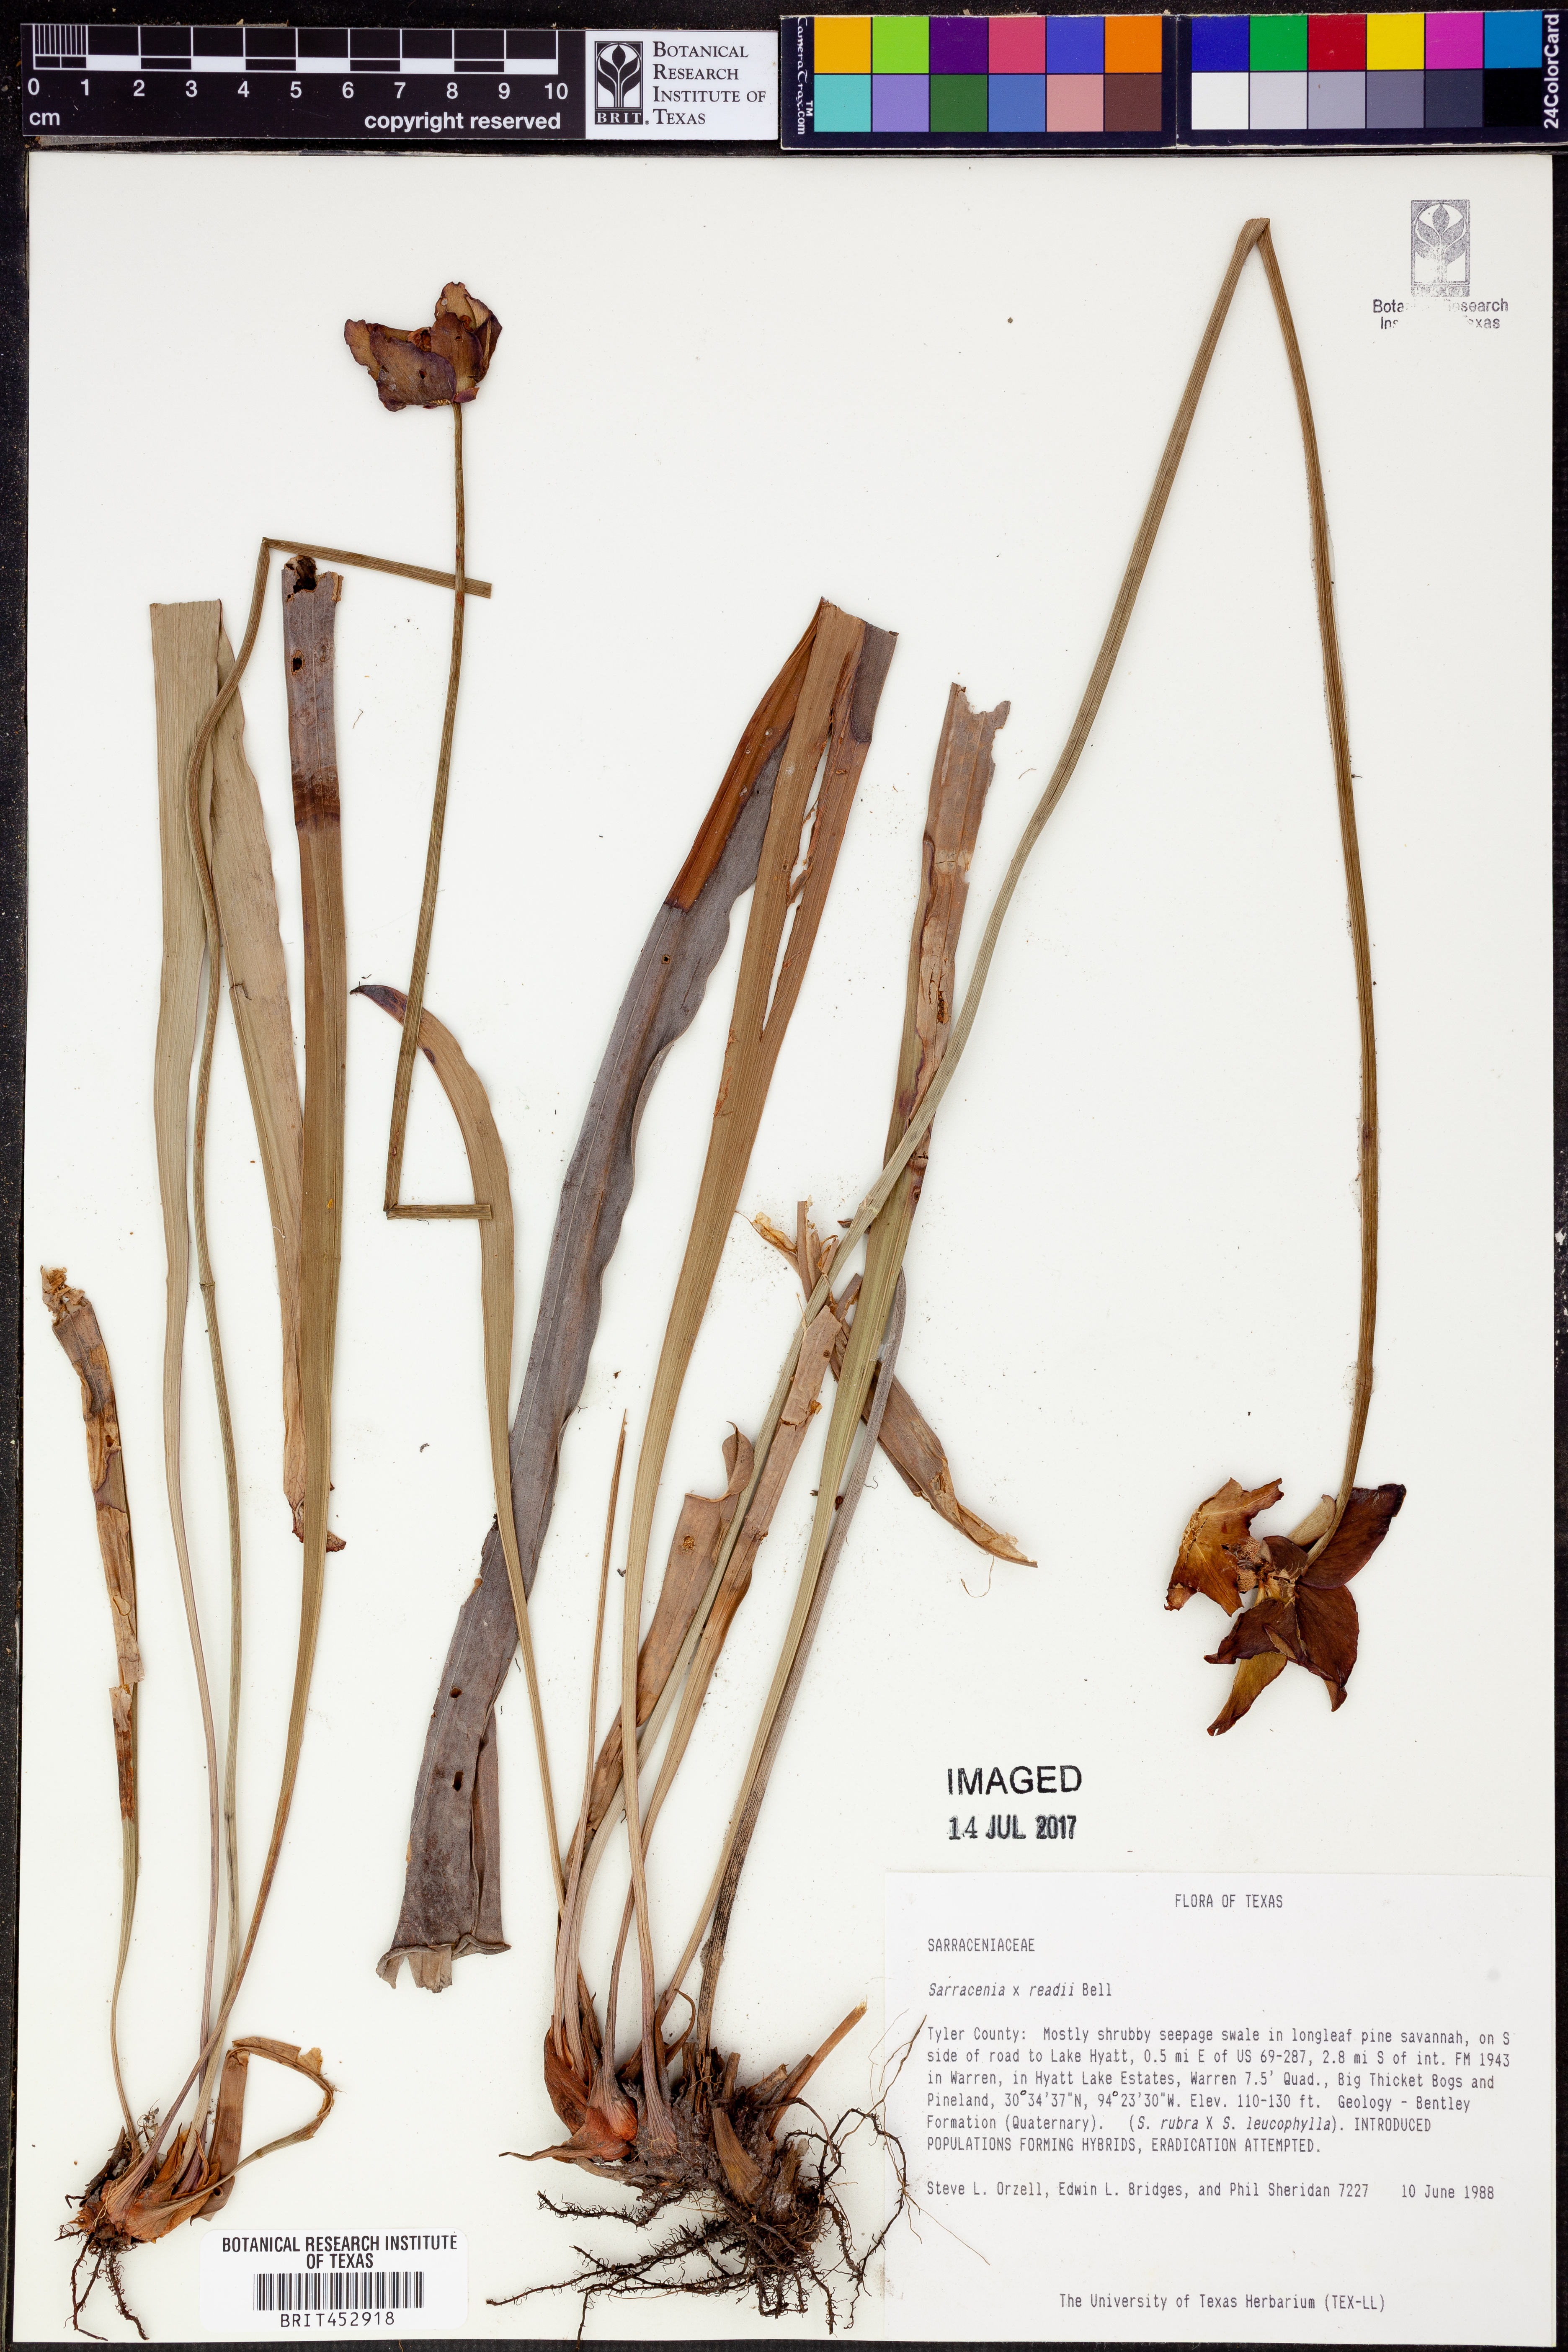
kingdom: Plantae
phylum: Tracheophyta
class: Magnoliopsida
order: Ericales
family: Sarraceniaceae
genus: Sarracenia
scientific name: Sarracenia
